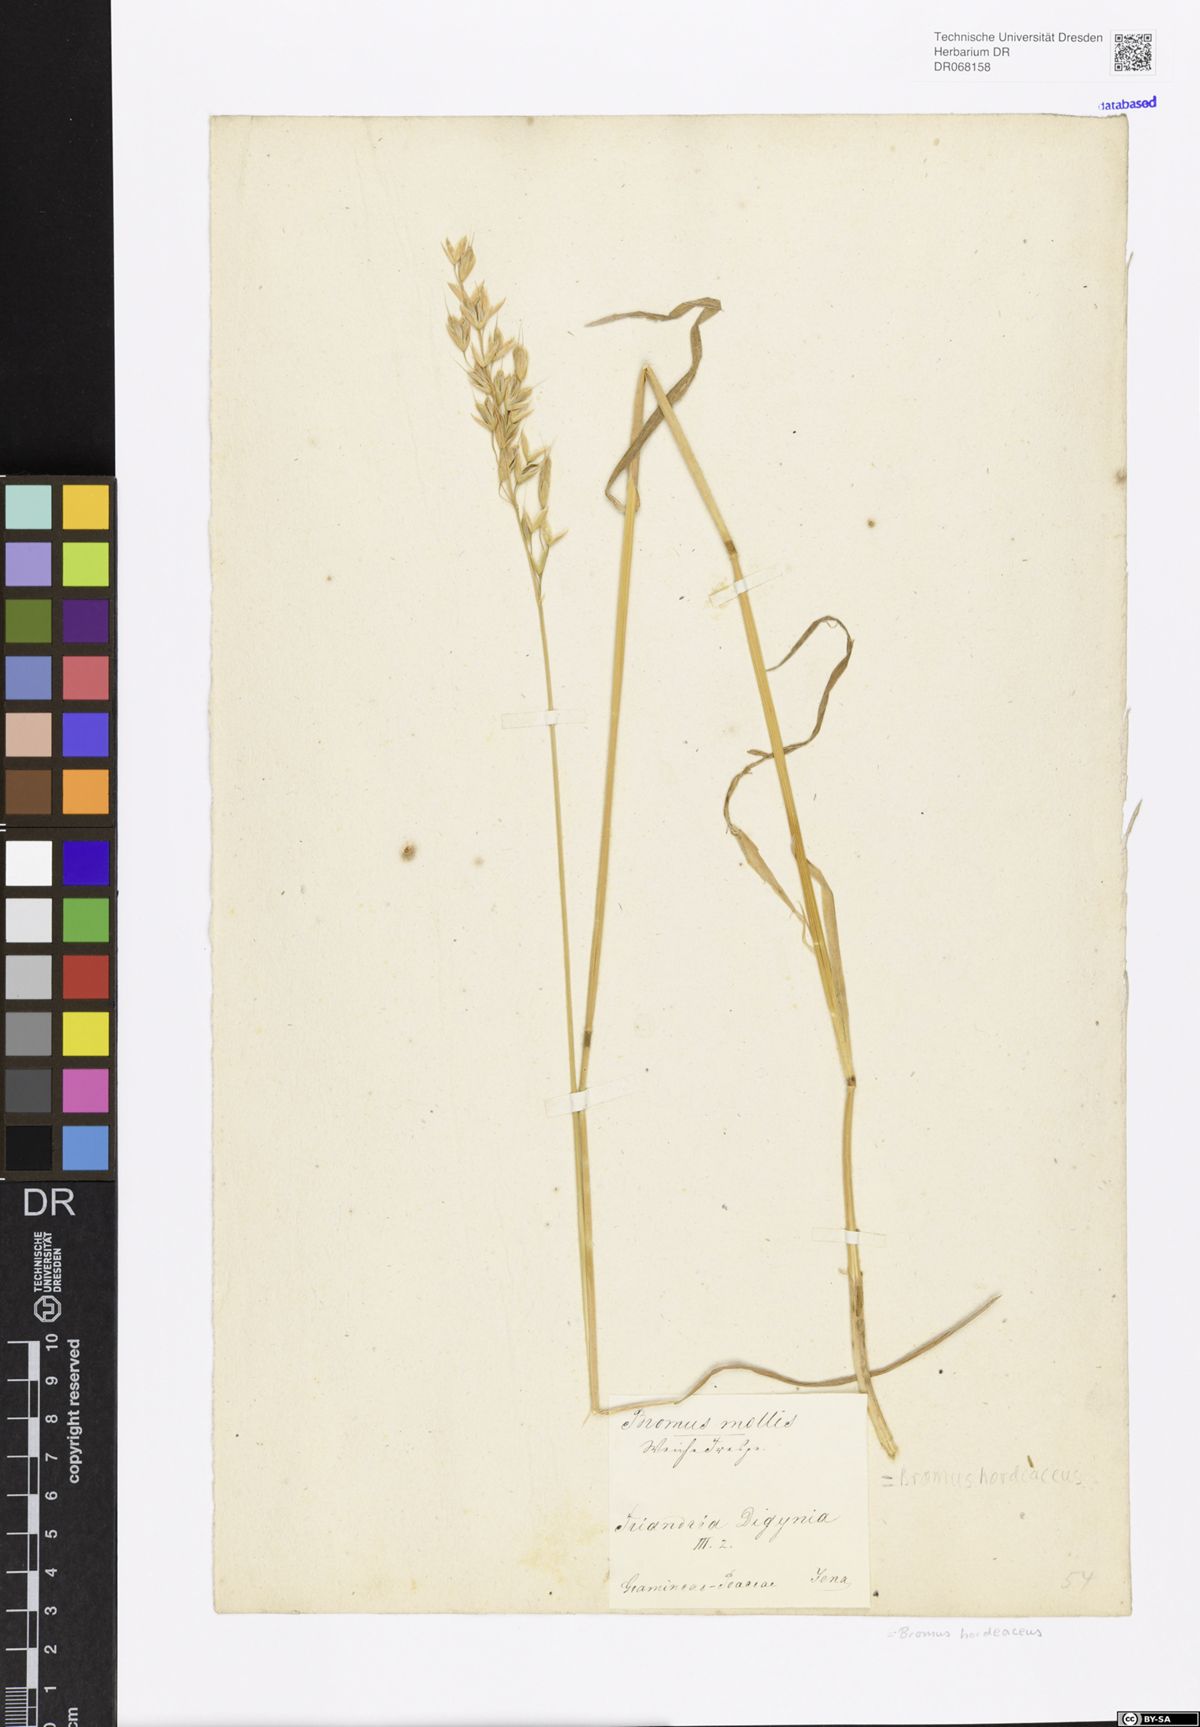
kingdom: Plantae
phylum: Tracheophyta
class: Liliopsida
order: Poales
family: Poaceae
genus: Bromus
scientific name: Bromus hordeaceus
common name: Soft brome
